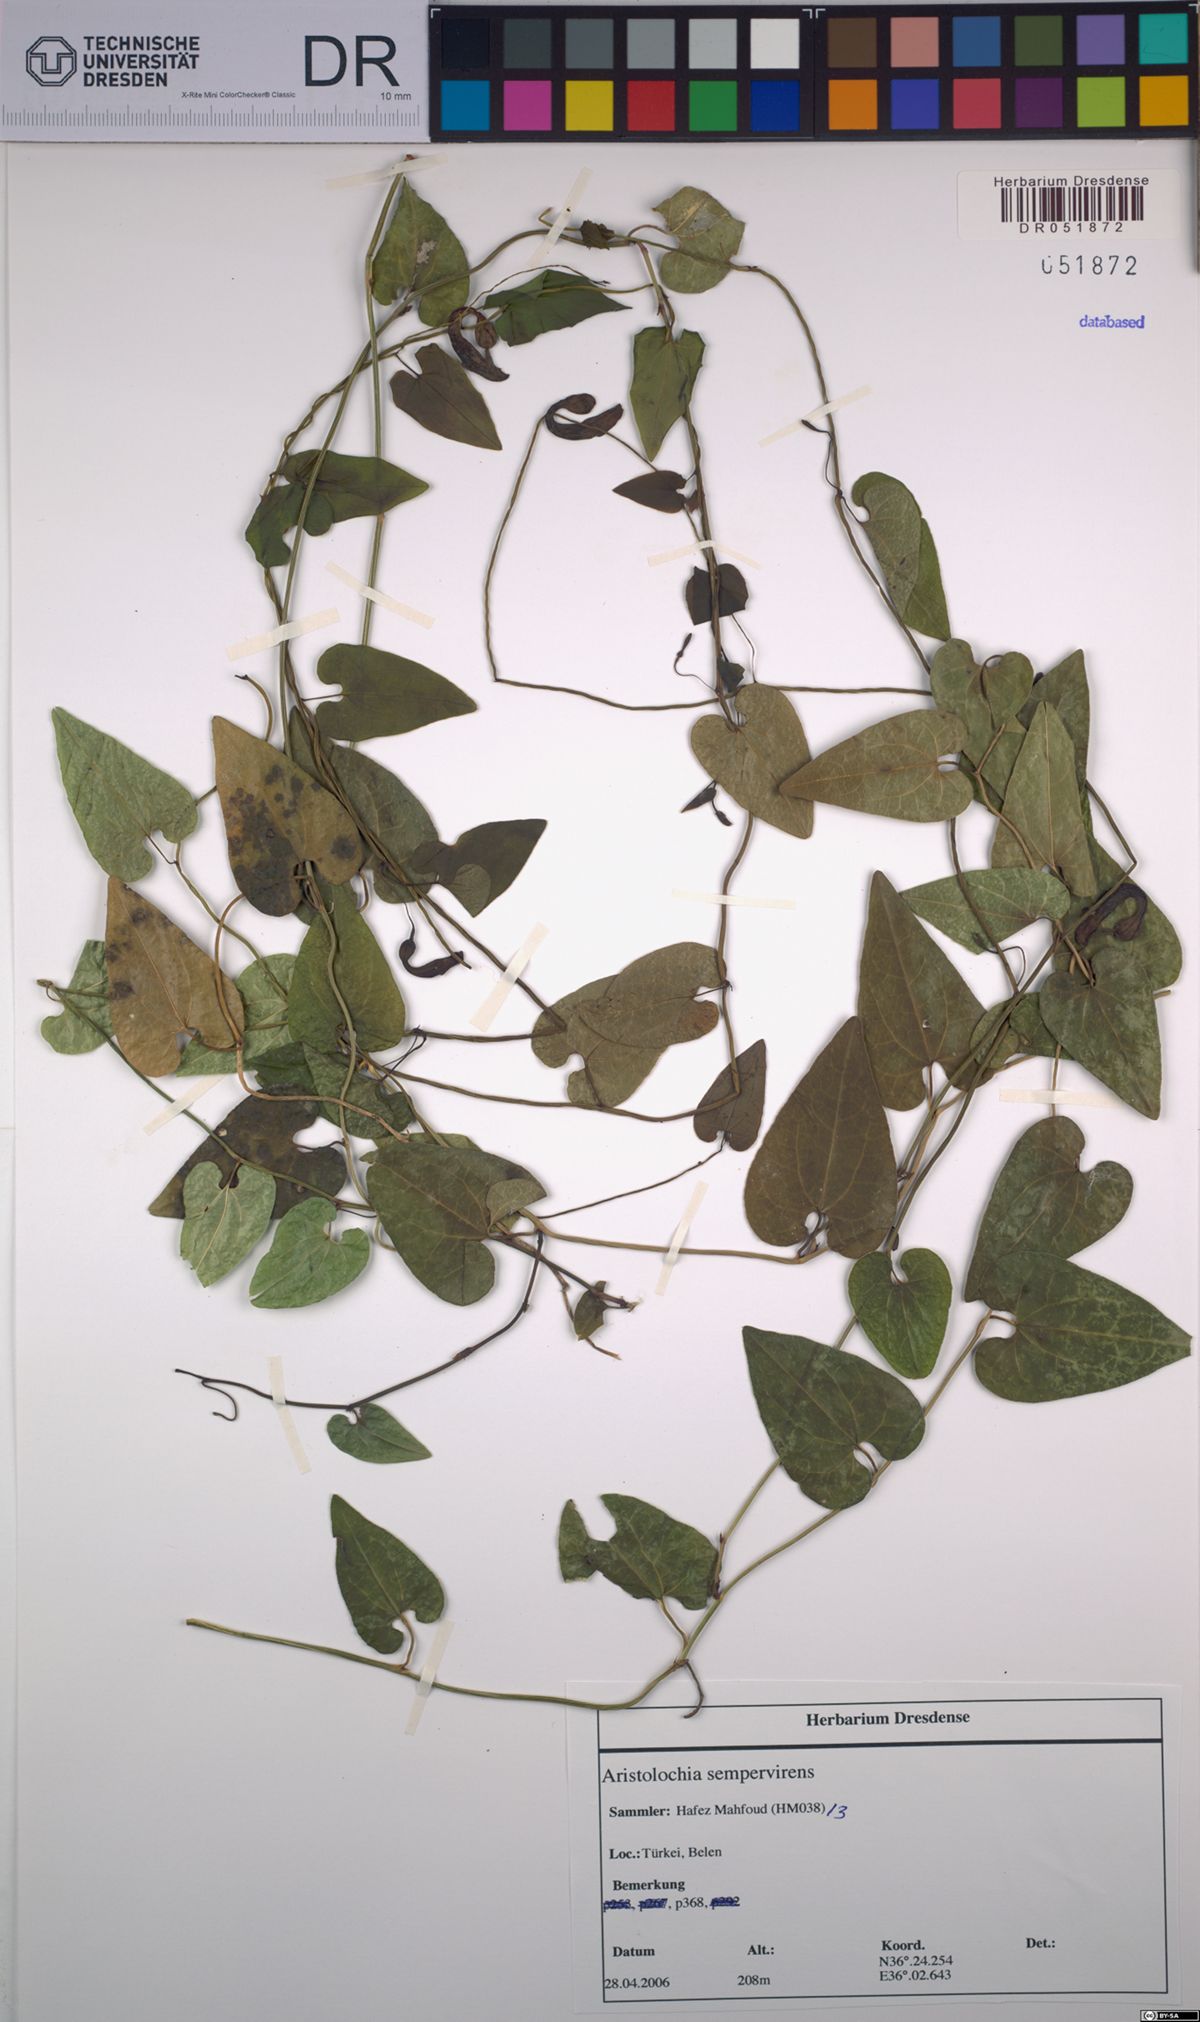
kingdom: Plantae
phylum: Tracheophyta
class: Magnoliopsida
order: Piperales
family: Aristolochiaceae
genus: Aristolochia
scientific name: Aristolochia sempervirens
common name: Long birthwort
